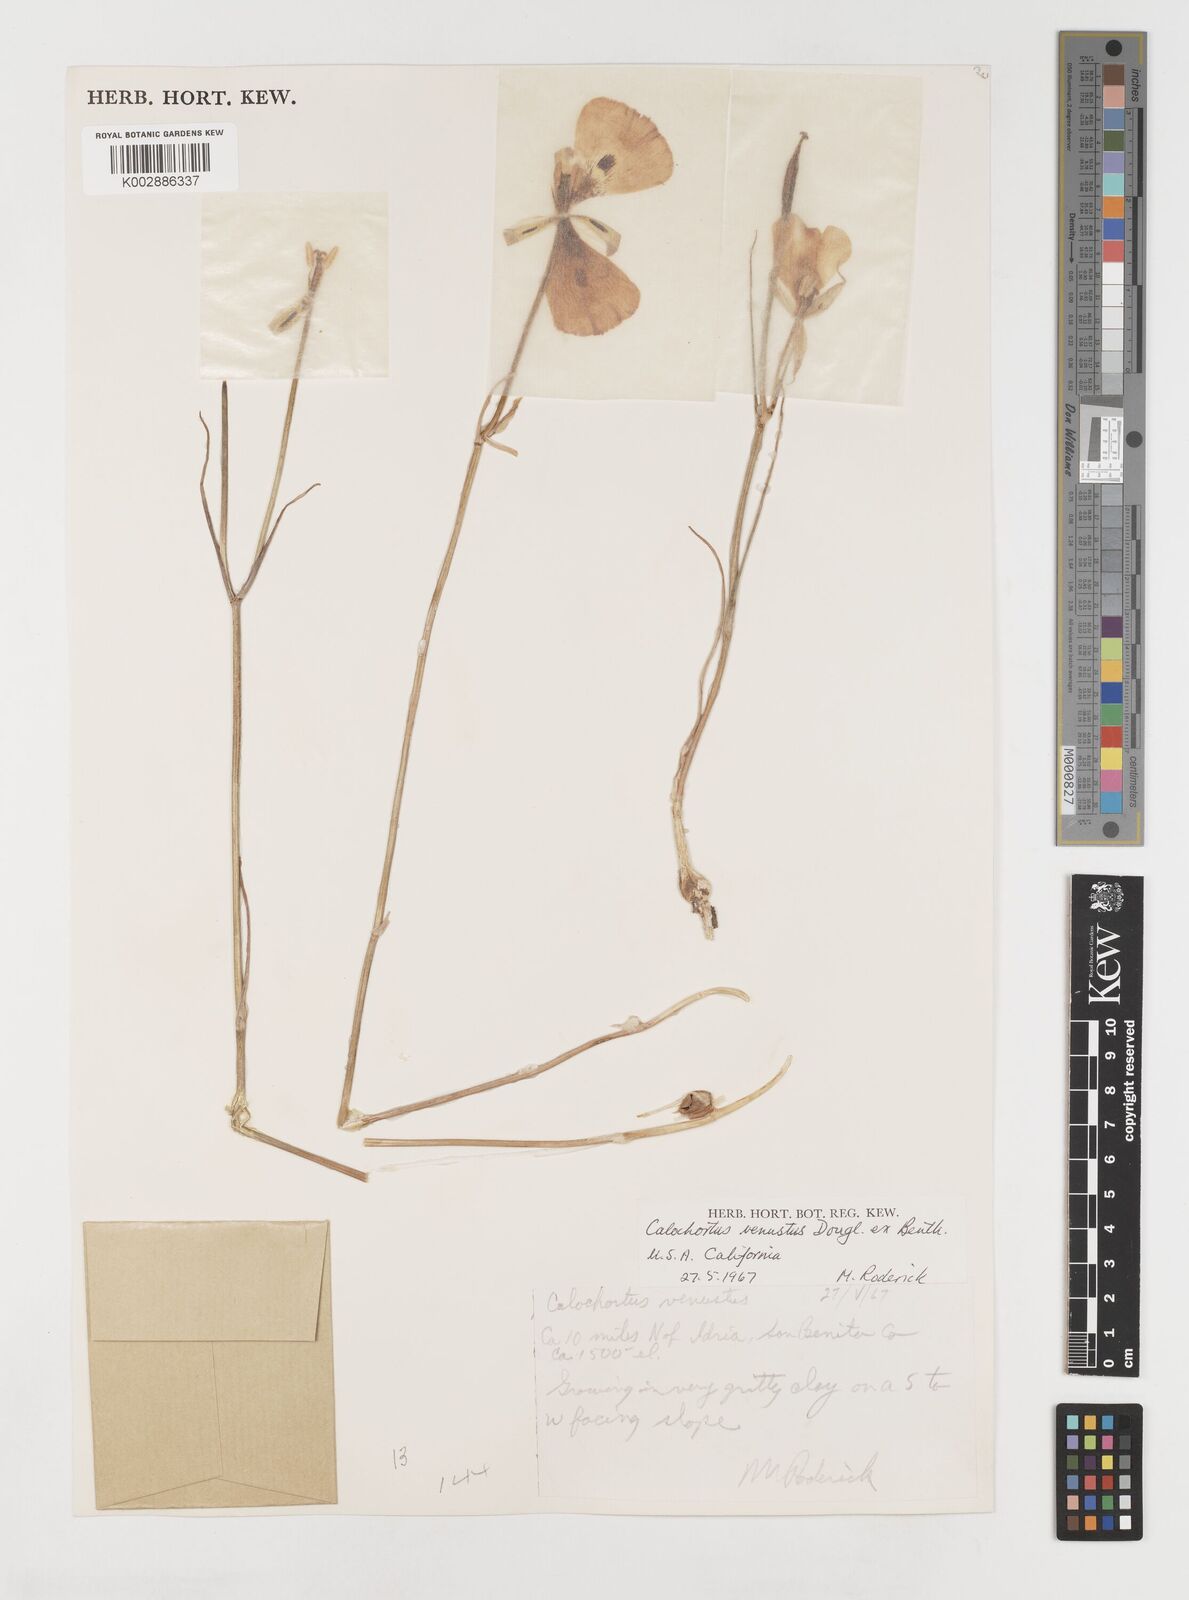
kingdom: Plantae
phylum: Tracheophyta
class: Liliopsida
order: Liliales
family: Liliaceae
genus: Calochortus
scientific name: Calochortus venustus
